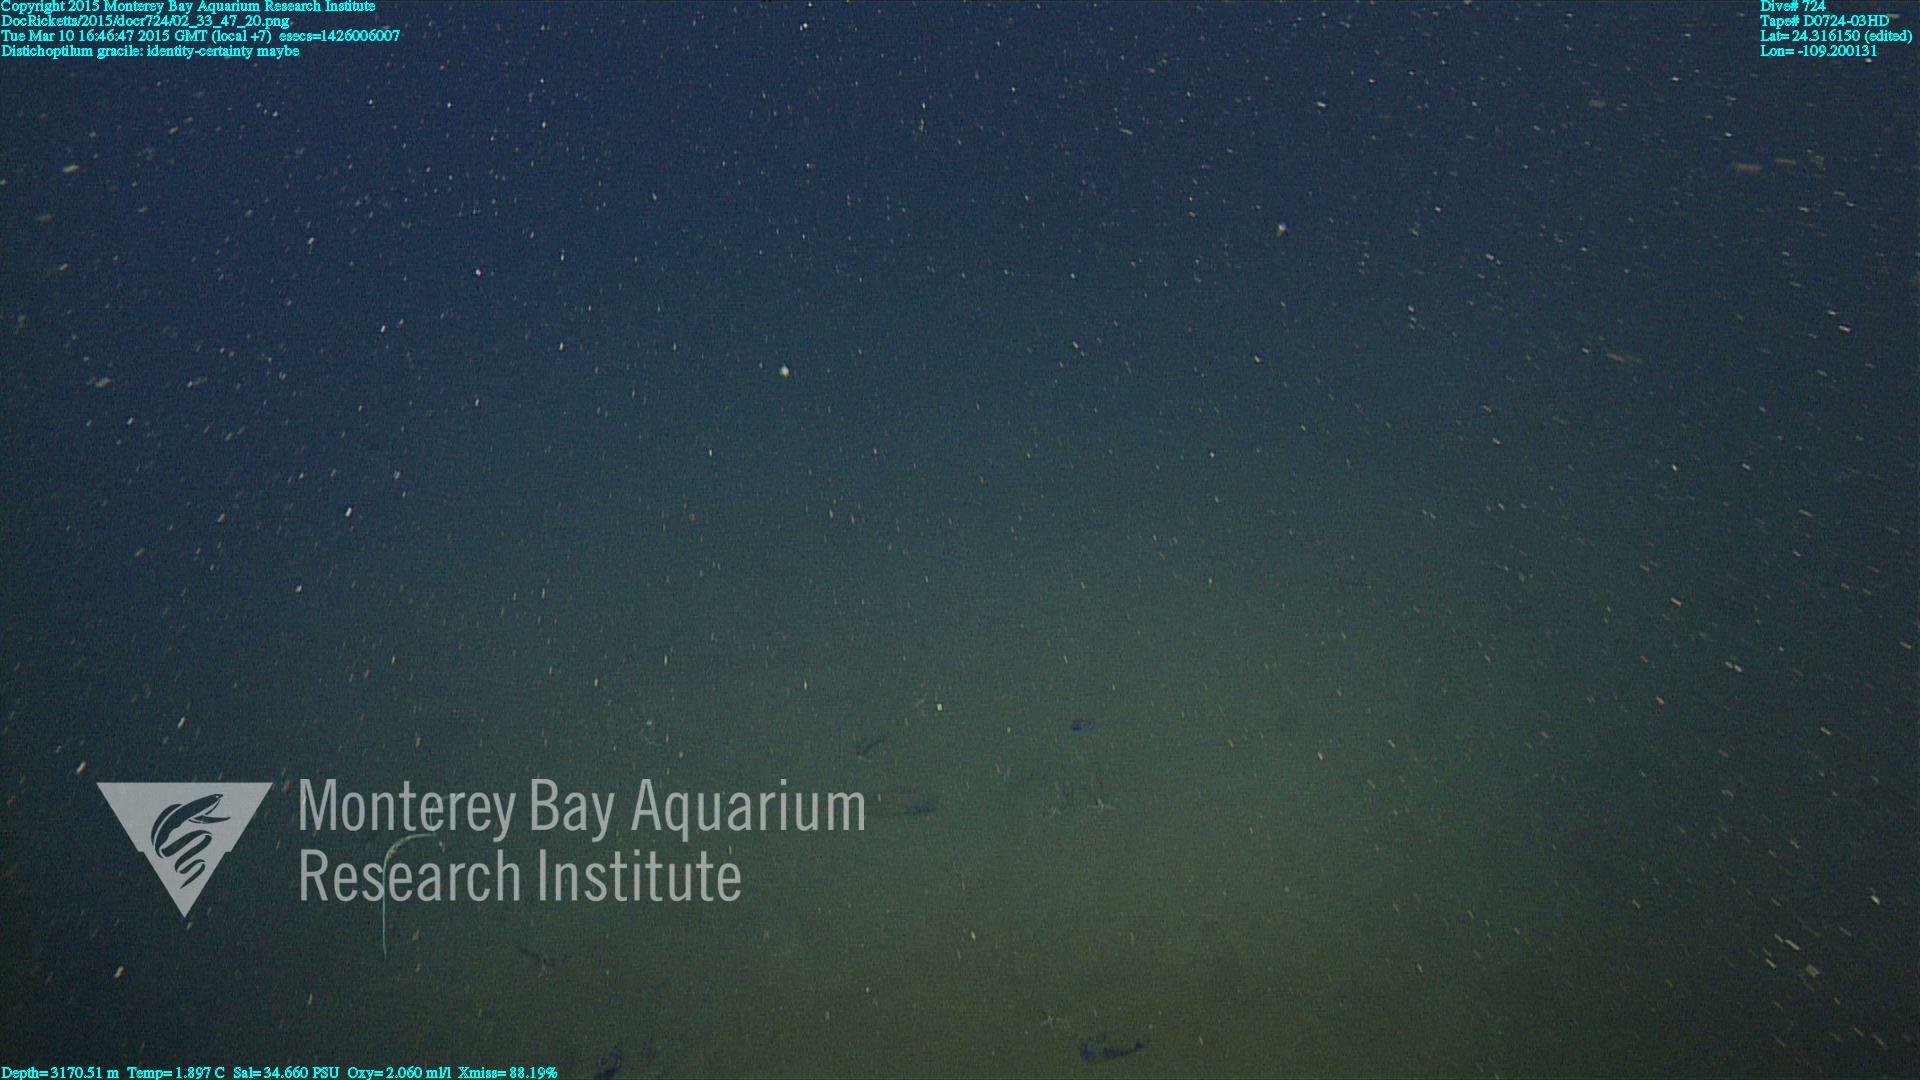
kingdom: Animalia
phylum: Cnidaria
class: Anthozoa
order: Scleralcyonacea
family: Protoptilidae
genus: Distichoptilum
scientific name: Distichoptilum gracile
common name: Slender sea pen
